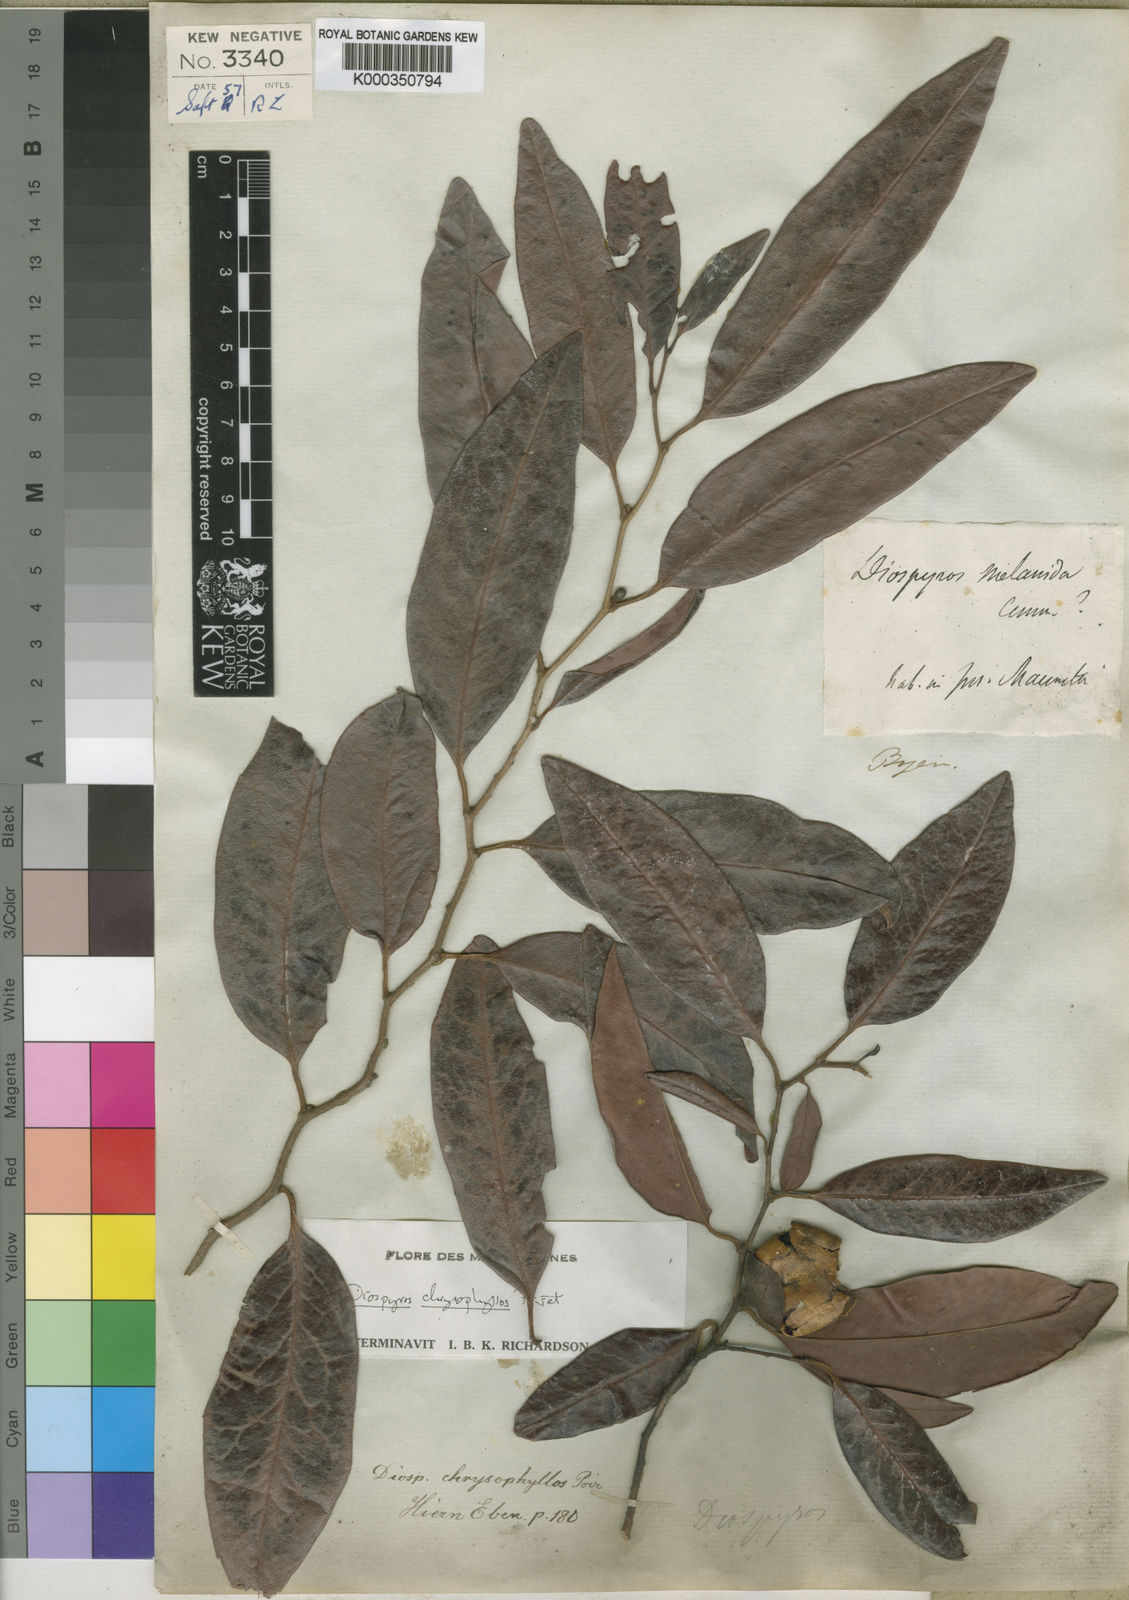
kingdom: Plantae
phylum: Tracheophyta
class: Magnoliopsida
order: Ericales
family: Ebenaceae
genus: Diospyros
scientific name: Diospyros chrysophyllos
